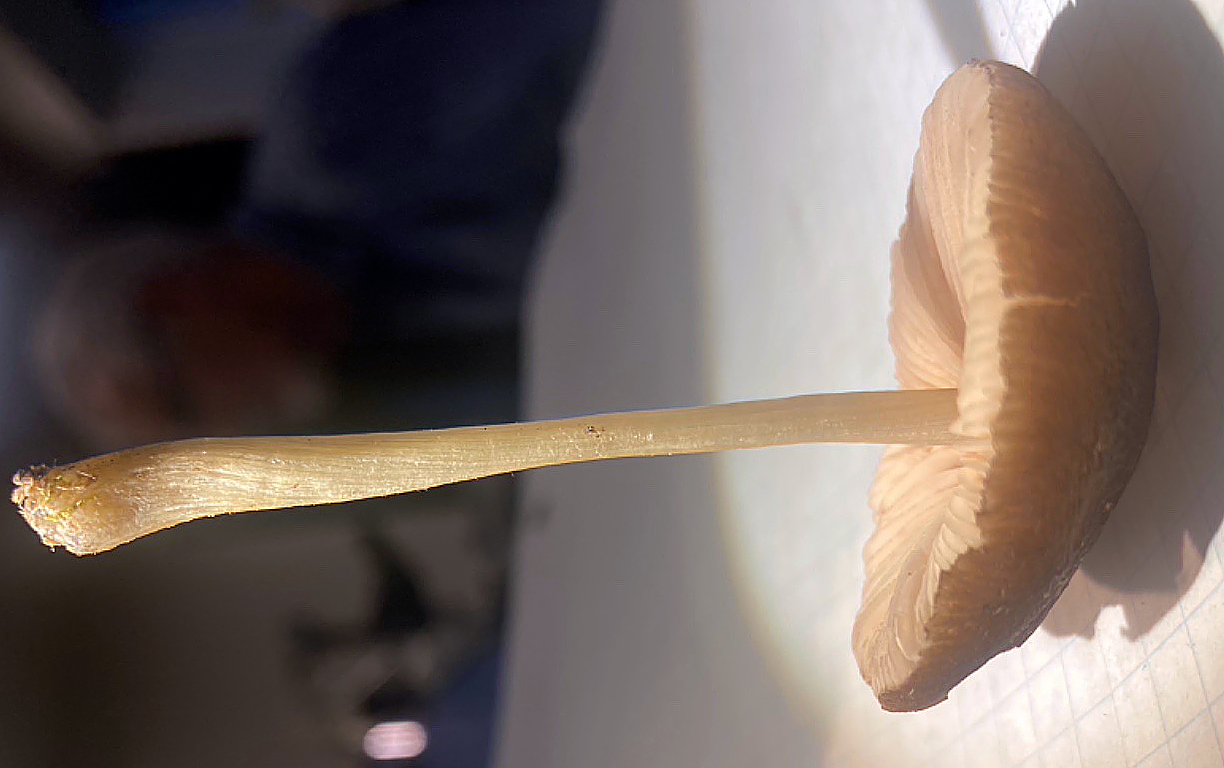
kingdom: Fungi
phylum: Basidiomycota
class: Agaricomycetes
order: Agaricales
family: Pluteaceae
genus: Pluteus
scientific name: Pluteus
